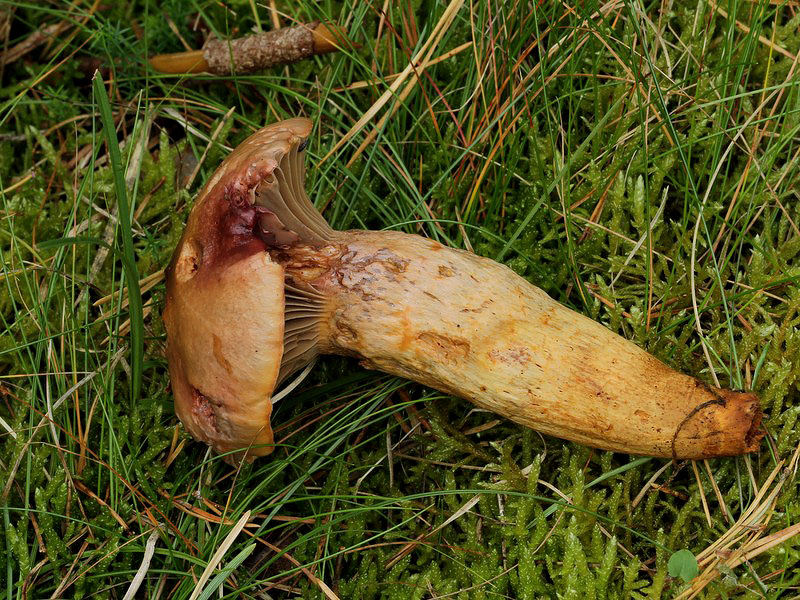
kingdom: Fungi
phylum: Basidiomycota
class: Agaricomycetes
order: Boletales
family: Gomphidiaceae
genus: Chroogomphus
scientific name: Chroogomphus rutilus
